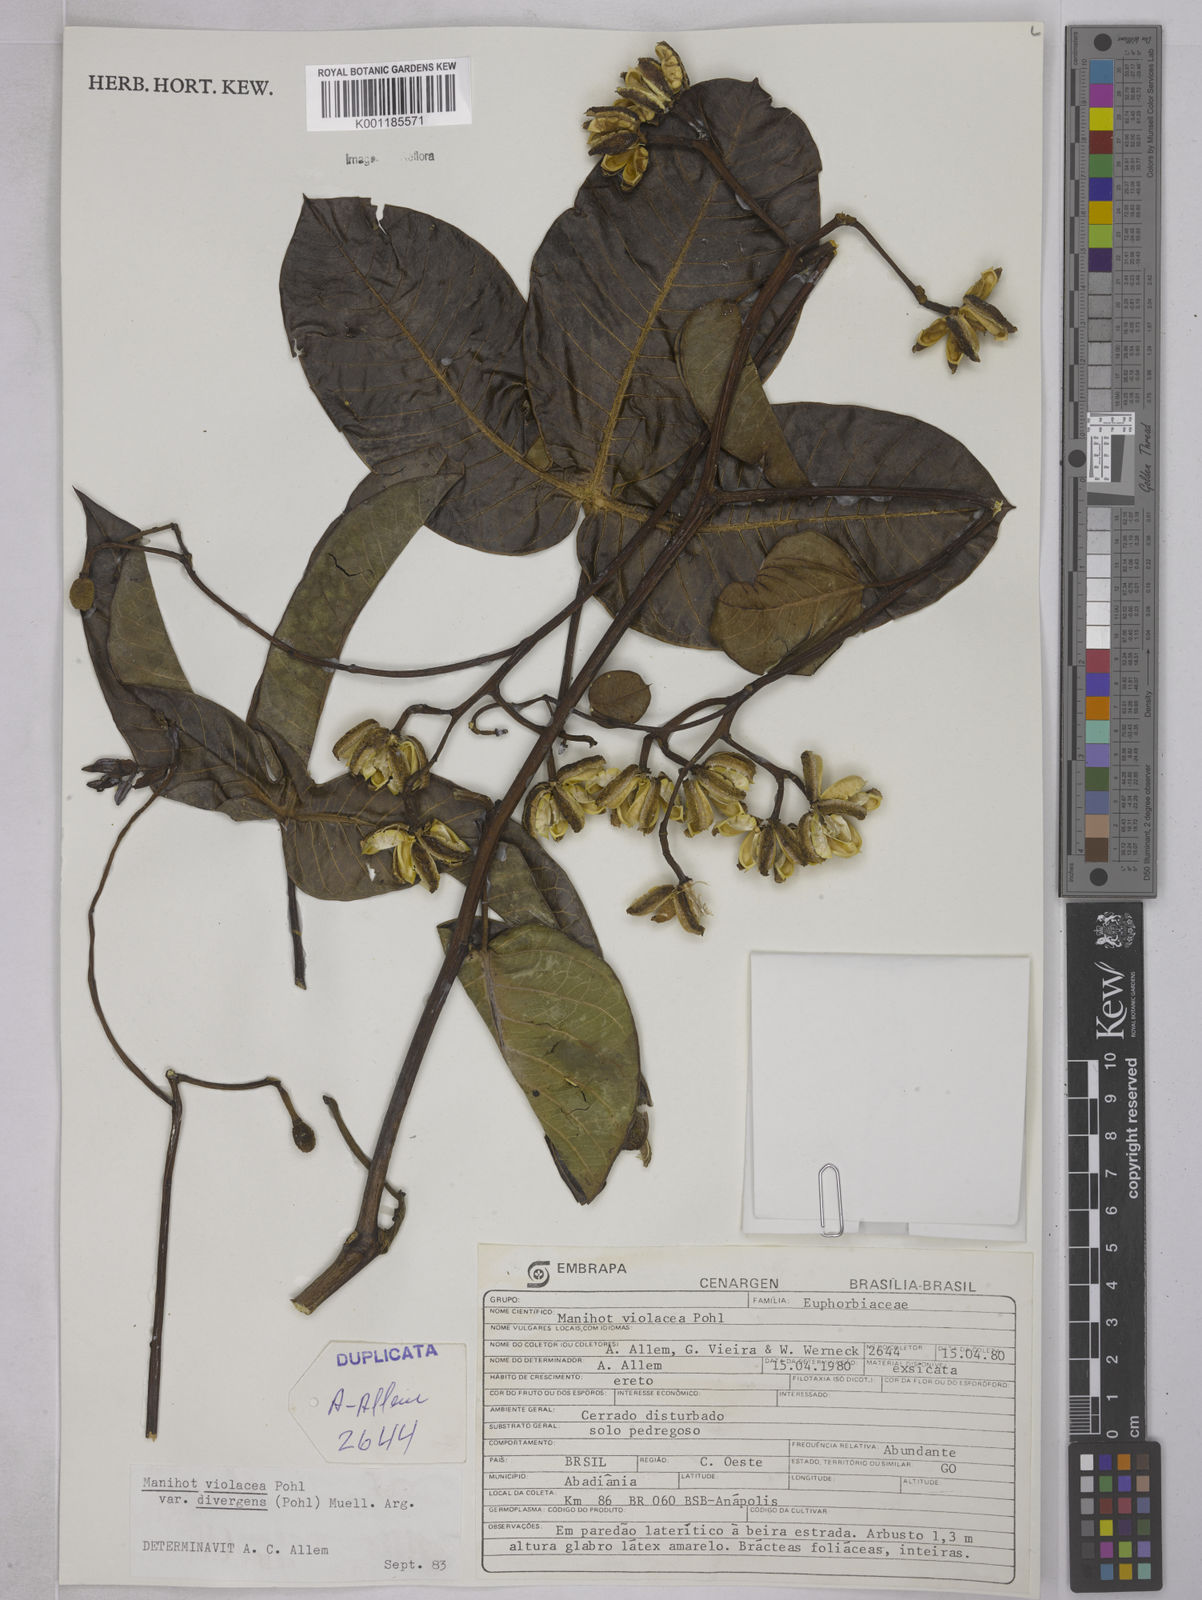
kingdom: Plantae
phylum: Tracheophyta
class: Magnoliopsida
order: Malpighiales
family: Euphorbiaceae
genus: Manihot
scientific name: Manihot divergens
